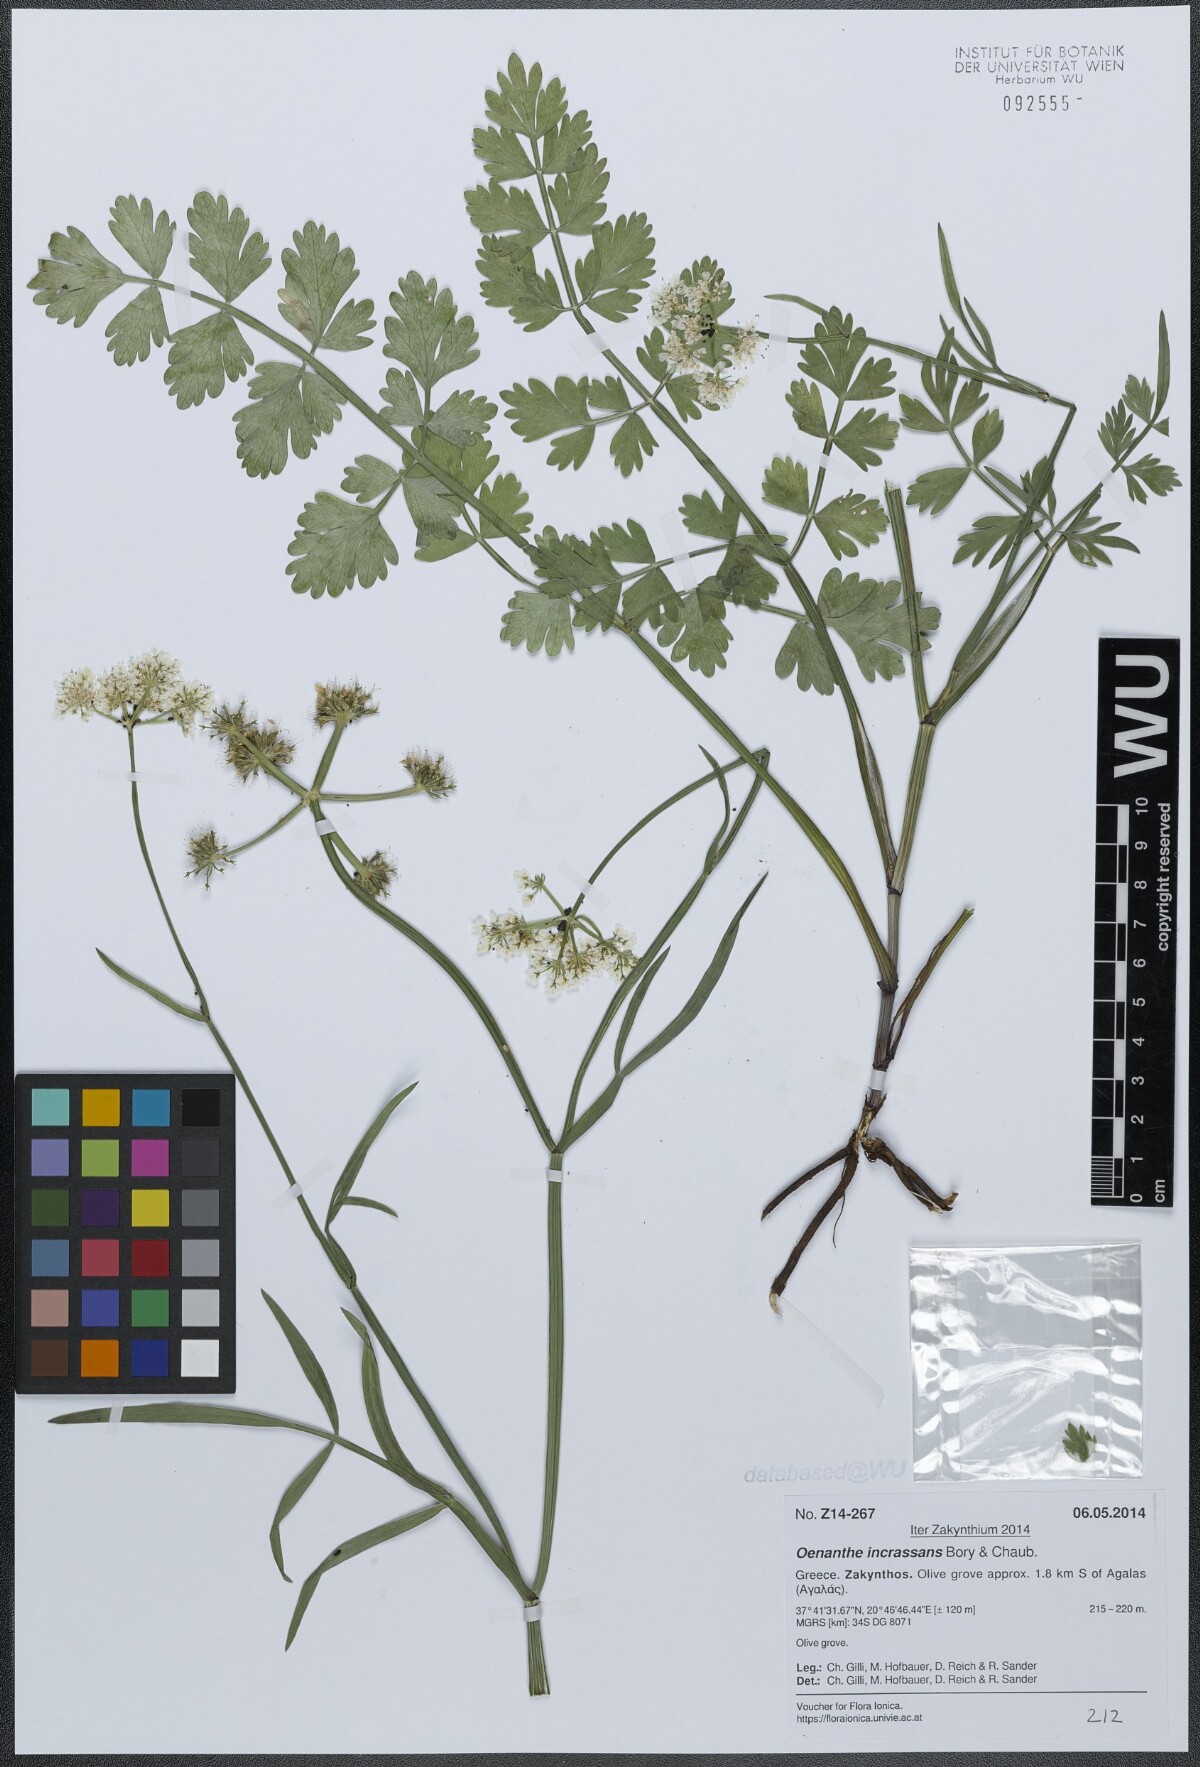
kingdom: Plantae
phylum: Tracheophyta
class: Magnoliopsida
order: Apiales
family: Apiaceae
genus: Oenanthe
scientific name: Oenanthe pimpinelloides
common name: Corky-fruited water-dropwort
